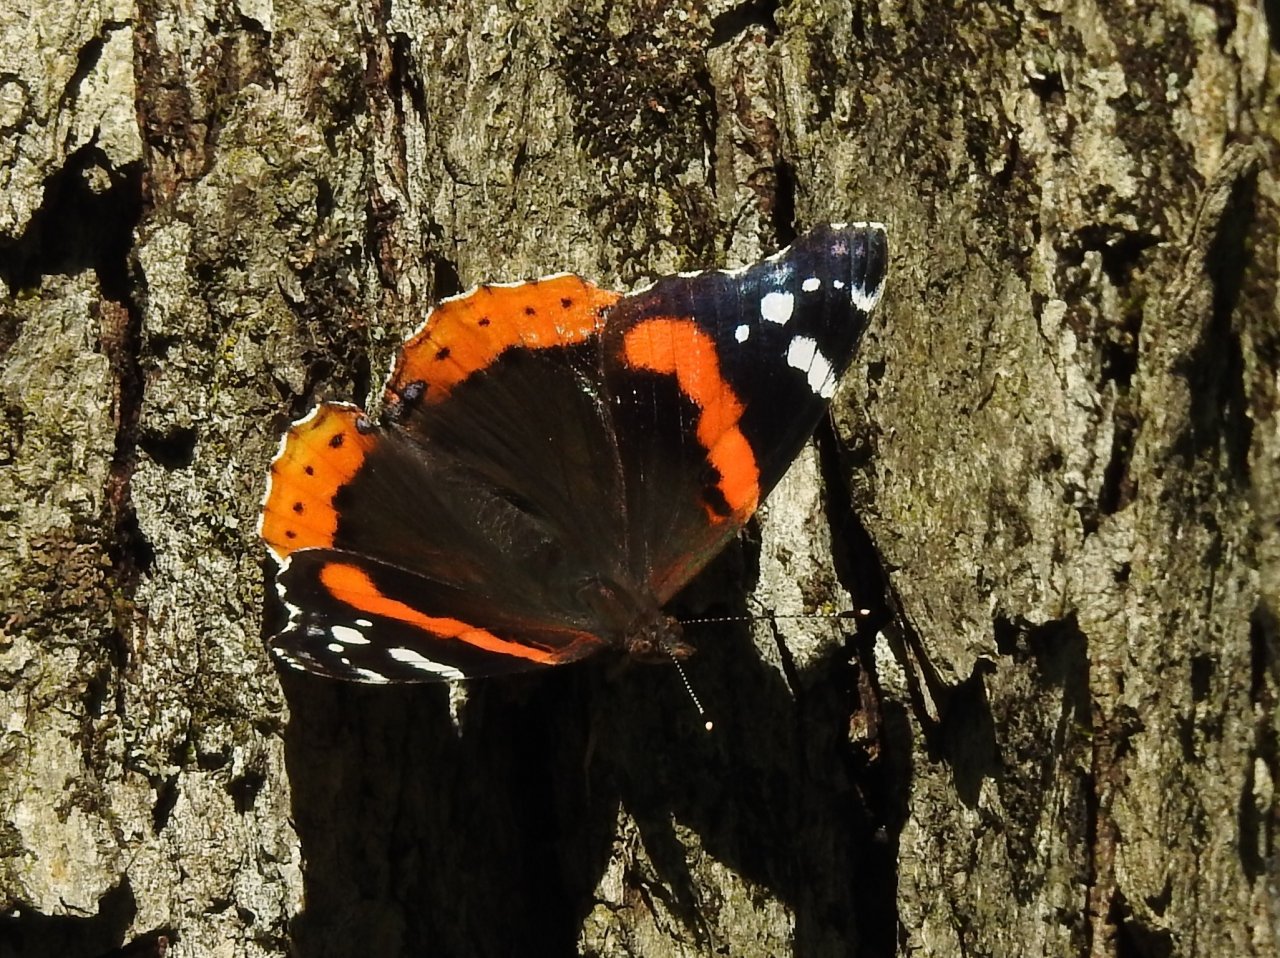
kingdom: Animalia
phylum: Arthropoda
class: Insecta
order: Lepidoptera
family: Nymphalidae
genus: Vanessa
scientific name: Vanessa atalanta
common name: Red Admiral
